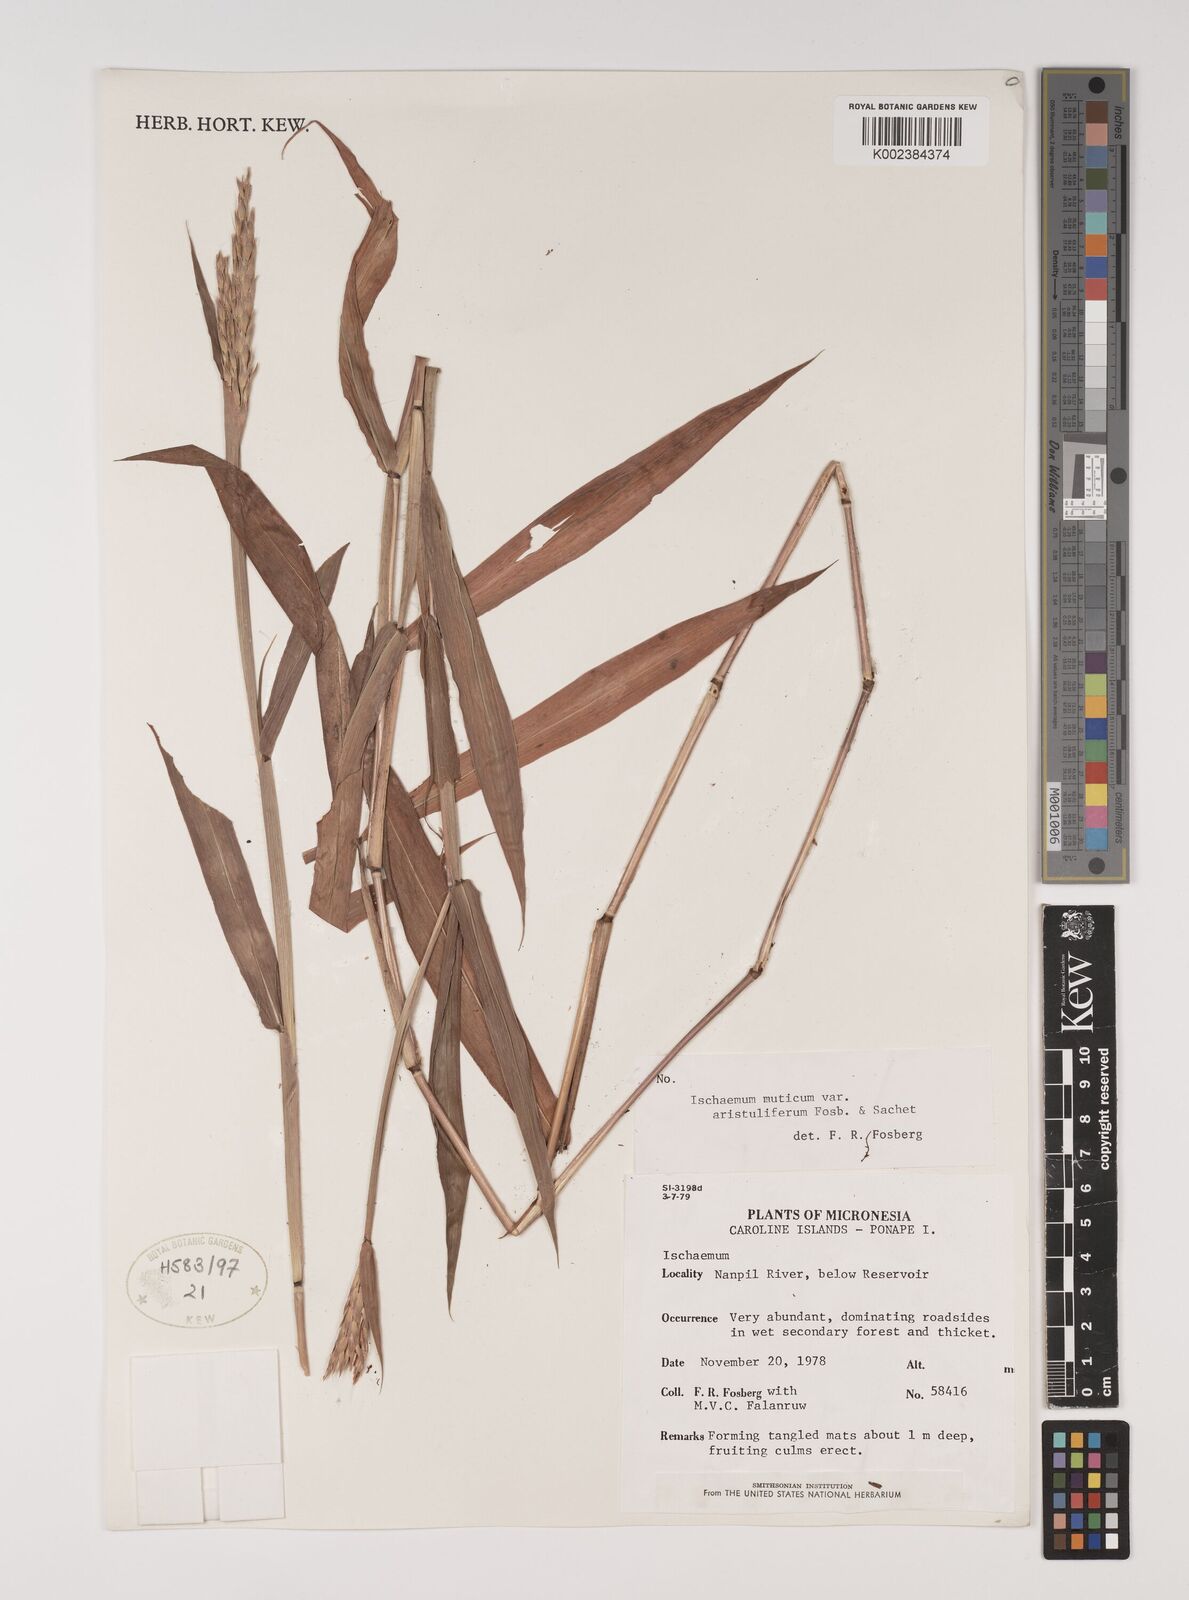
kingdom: Plantae
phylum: Tracheophyta
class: Liliopsida
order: Poales
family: Poaceae
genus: Ischaemum
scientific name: Ischaemum muticum
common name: Drought grass
